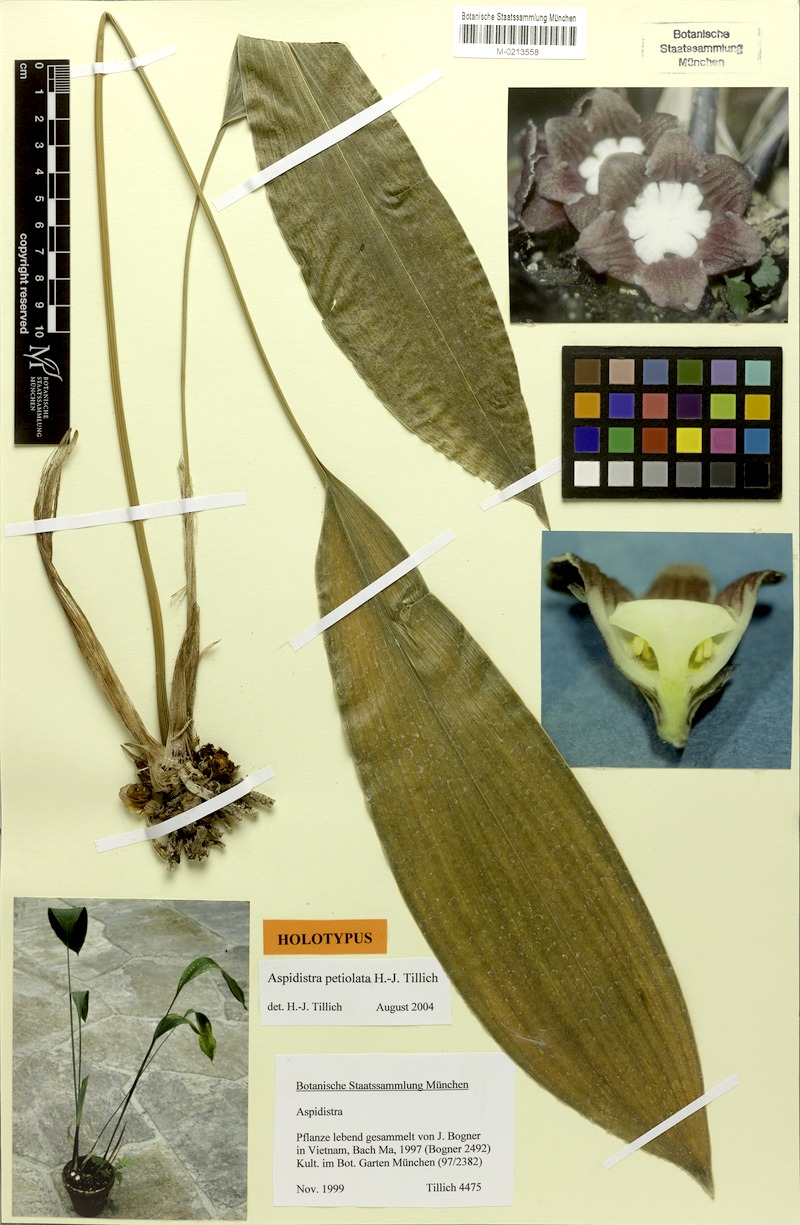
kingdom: Plantae
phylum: Tracheophyta
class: Liliopsida
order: Asparagales
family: Asparagaceae
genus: Aspidistra
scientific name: Aspidistra petiolata
